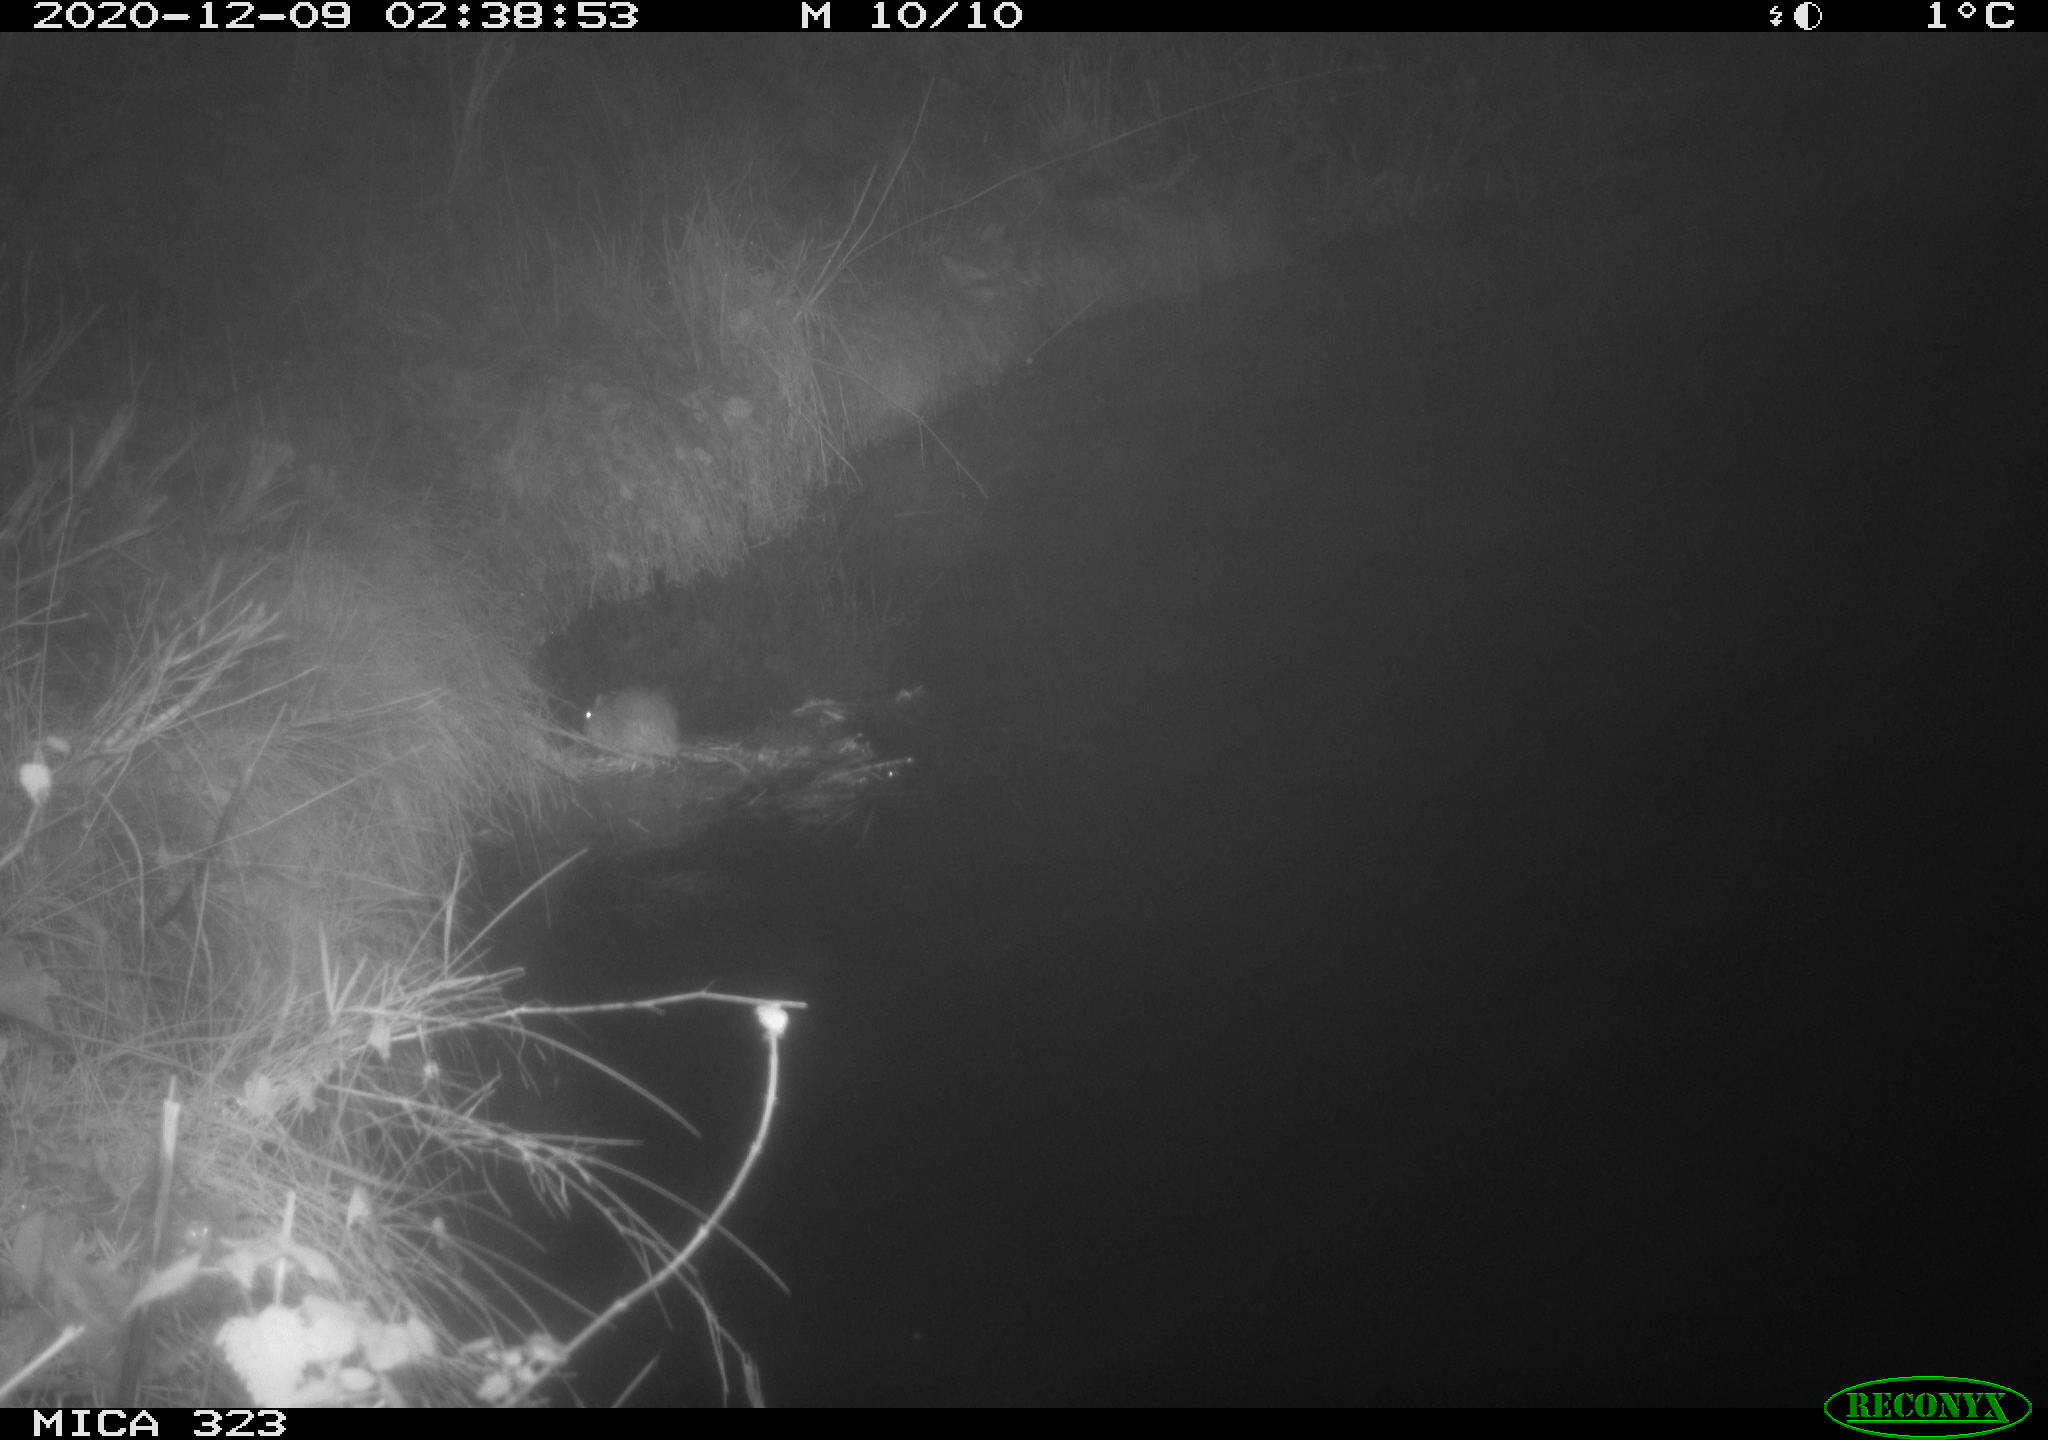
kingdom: Animalia
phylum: Chordata
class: Mammalia
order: Rodentia
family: Muridae
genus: Rattus
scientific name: Rattus norvegicus
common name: Brown rat
